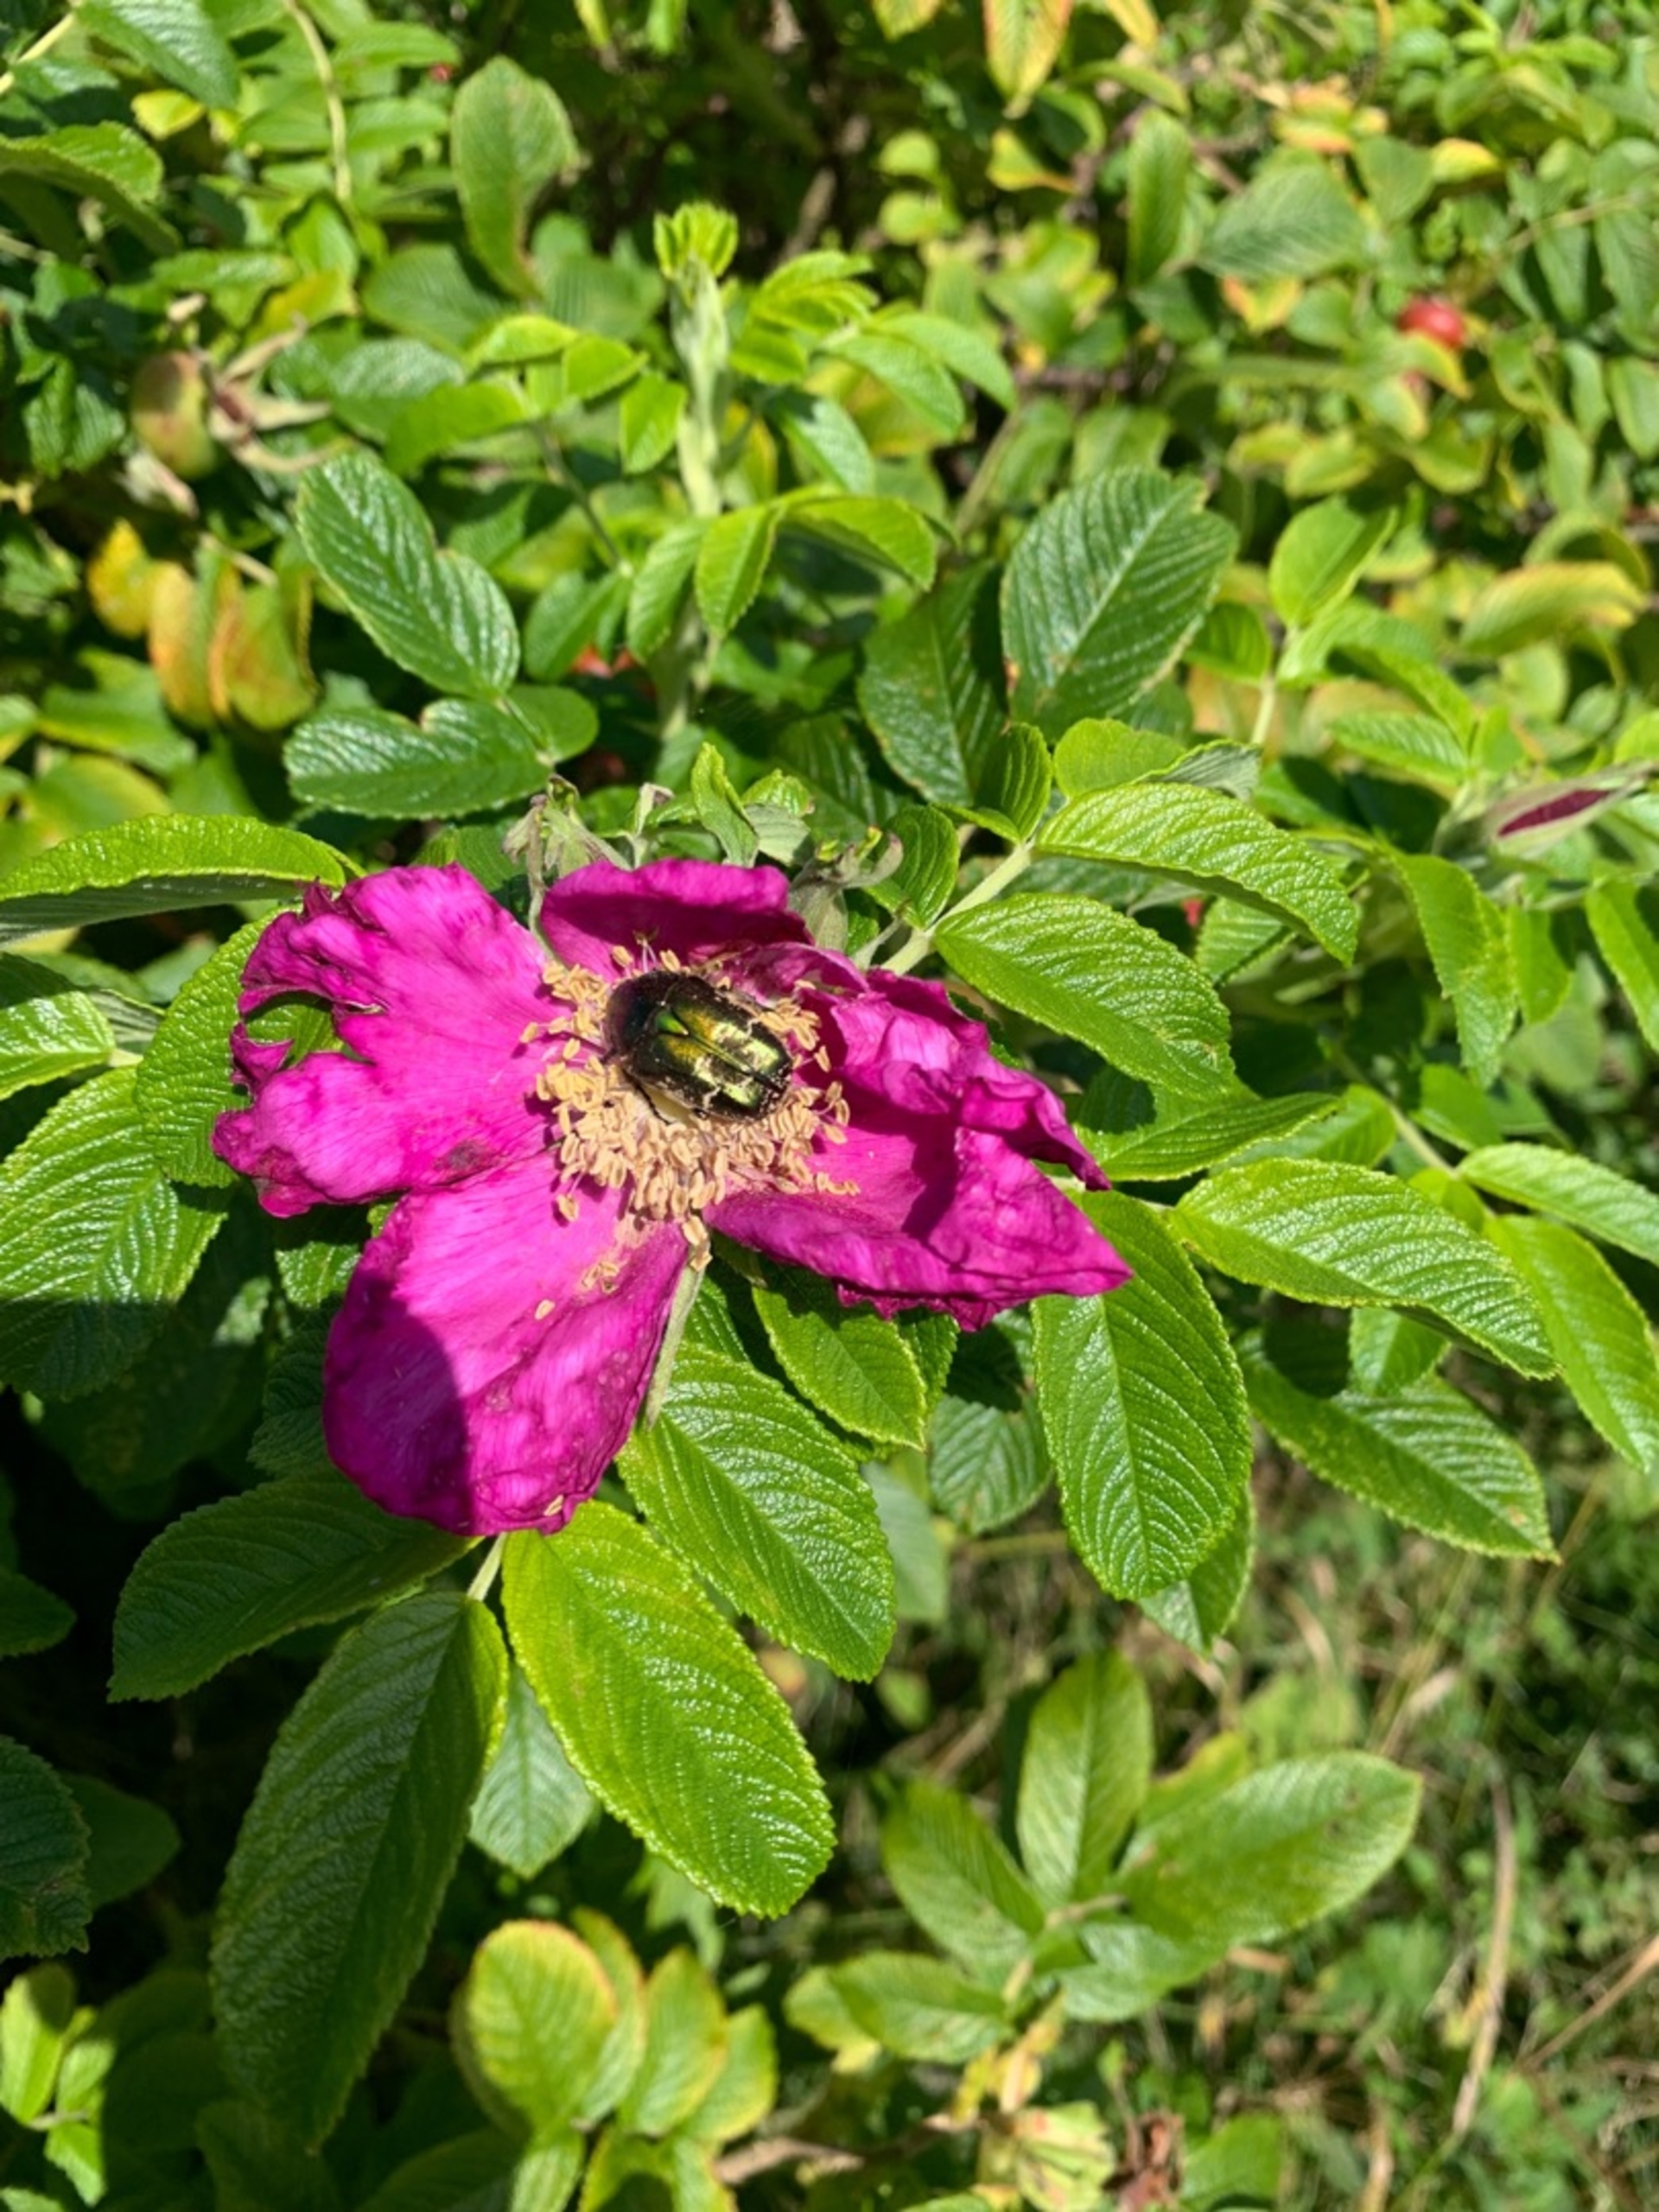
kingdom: Animalia
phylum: Arthropoda
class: Insecta
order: Coleoptera
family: Scarabaeidae
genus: Protaetia
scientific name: Protaetia cuprea
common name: Kobberguldbasse
